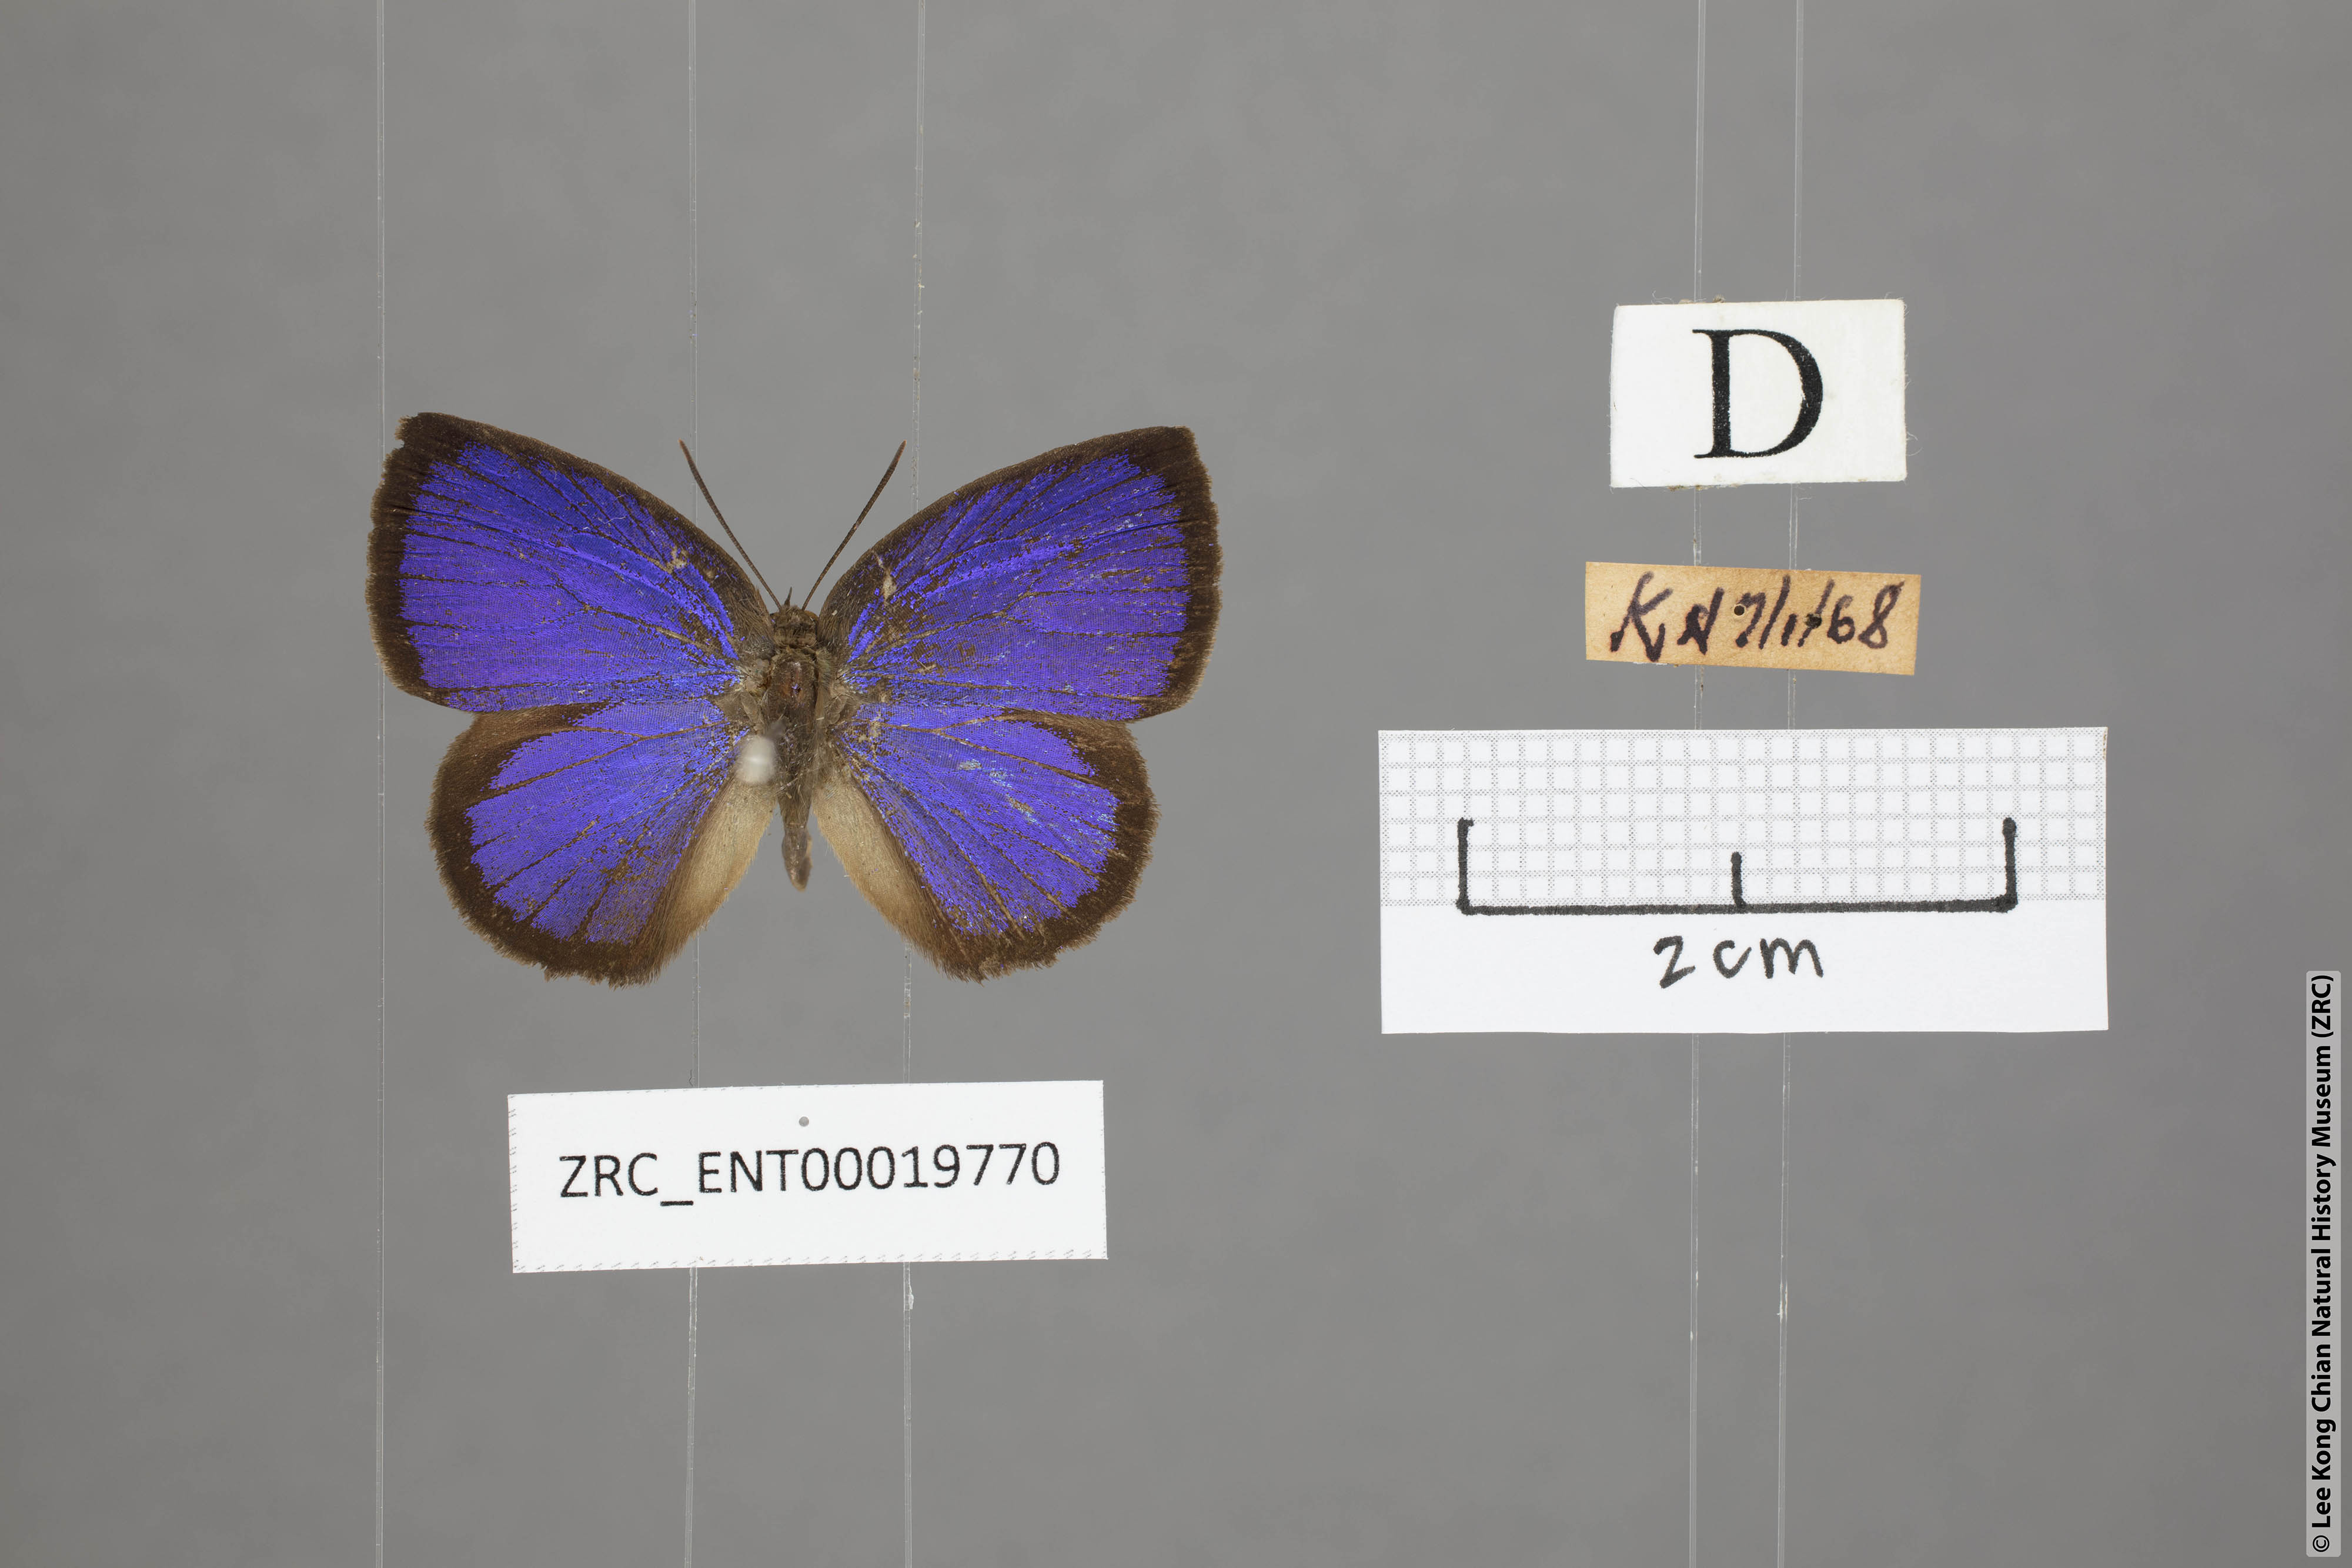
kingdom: Animalia
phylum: Arthropoda
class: Insecta
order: Lepidoptera
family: Lycaenidae
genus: Arhopala
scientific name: Arhopala perimuta
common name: Yellowdisc oakblue
